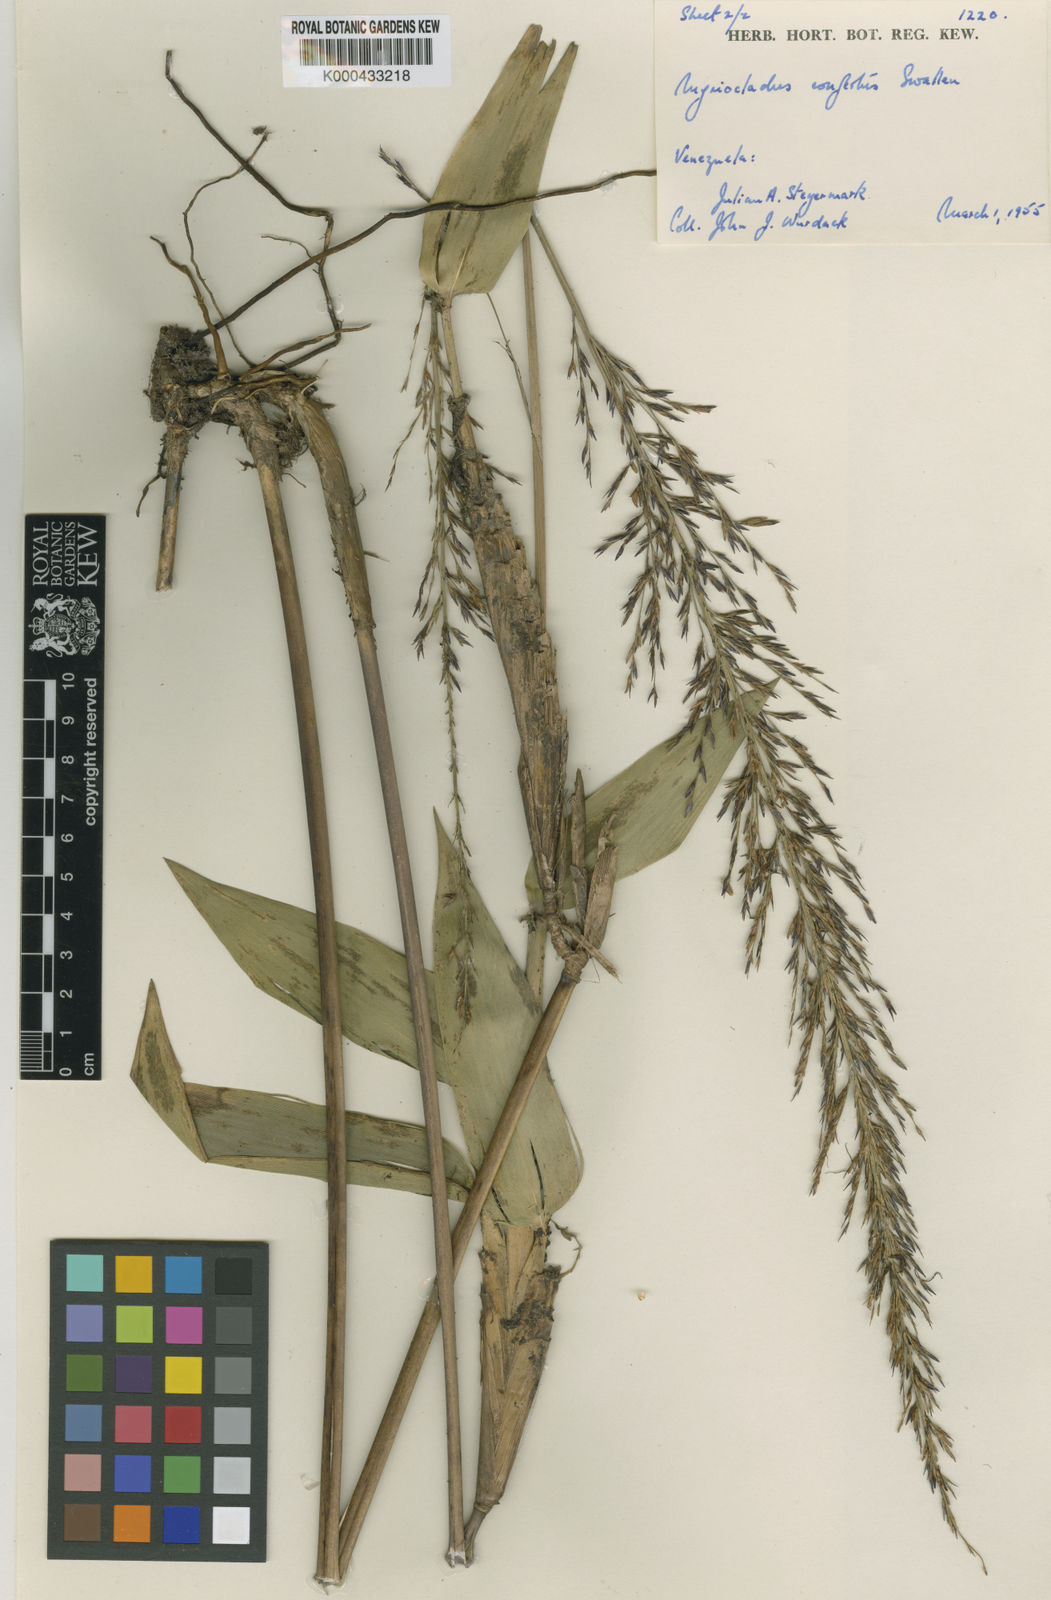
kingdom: Plantae
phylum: Tracheophyta
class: Liliopsida
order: Poales
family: Poaceae
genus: Myriocladus
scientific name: Myriocladus distantiflorus
